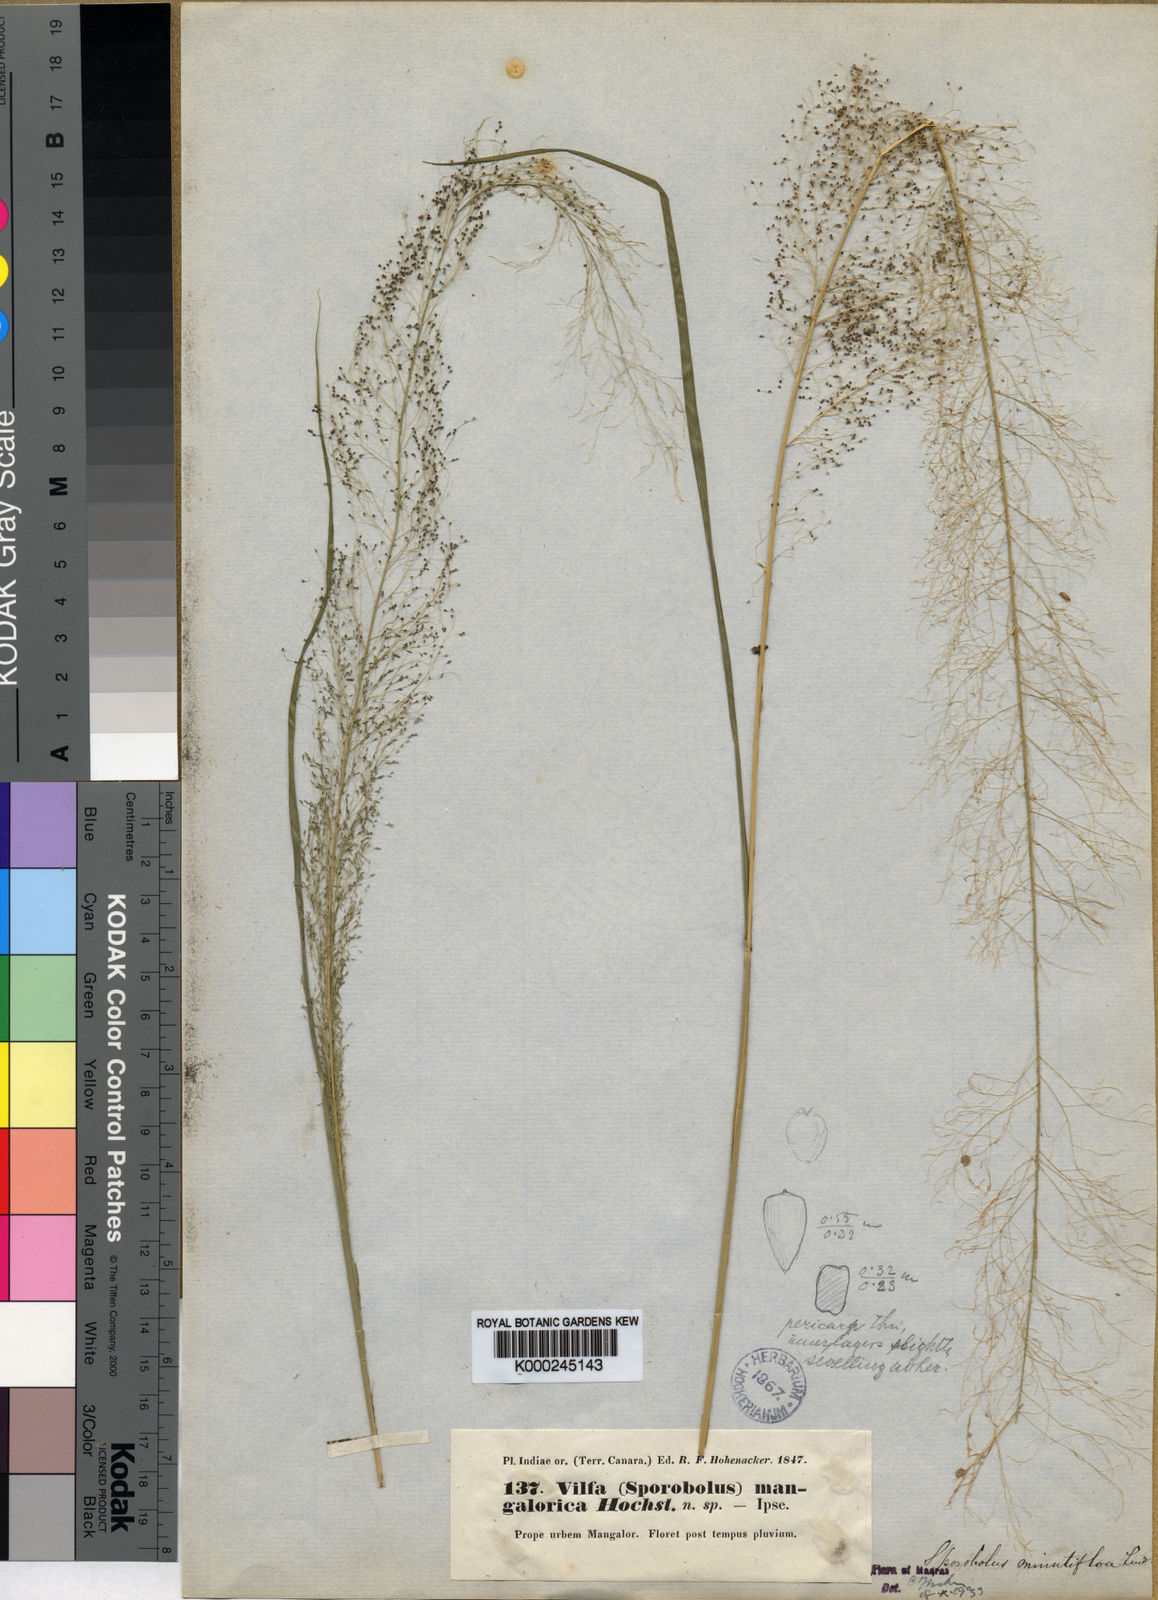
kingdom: Plantae
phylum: Tracheophyta
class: Liliopsida
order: Poales
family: Poaceae
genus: Sporobolus
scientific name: Sporobolus tenuissimus
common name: Tropical dropseed
